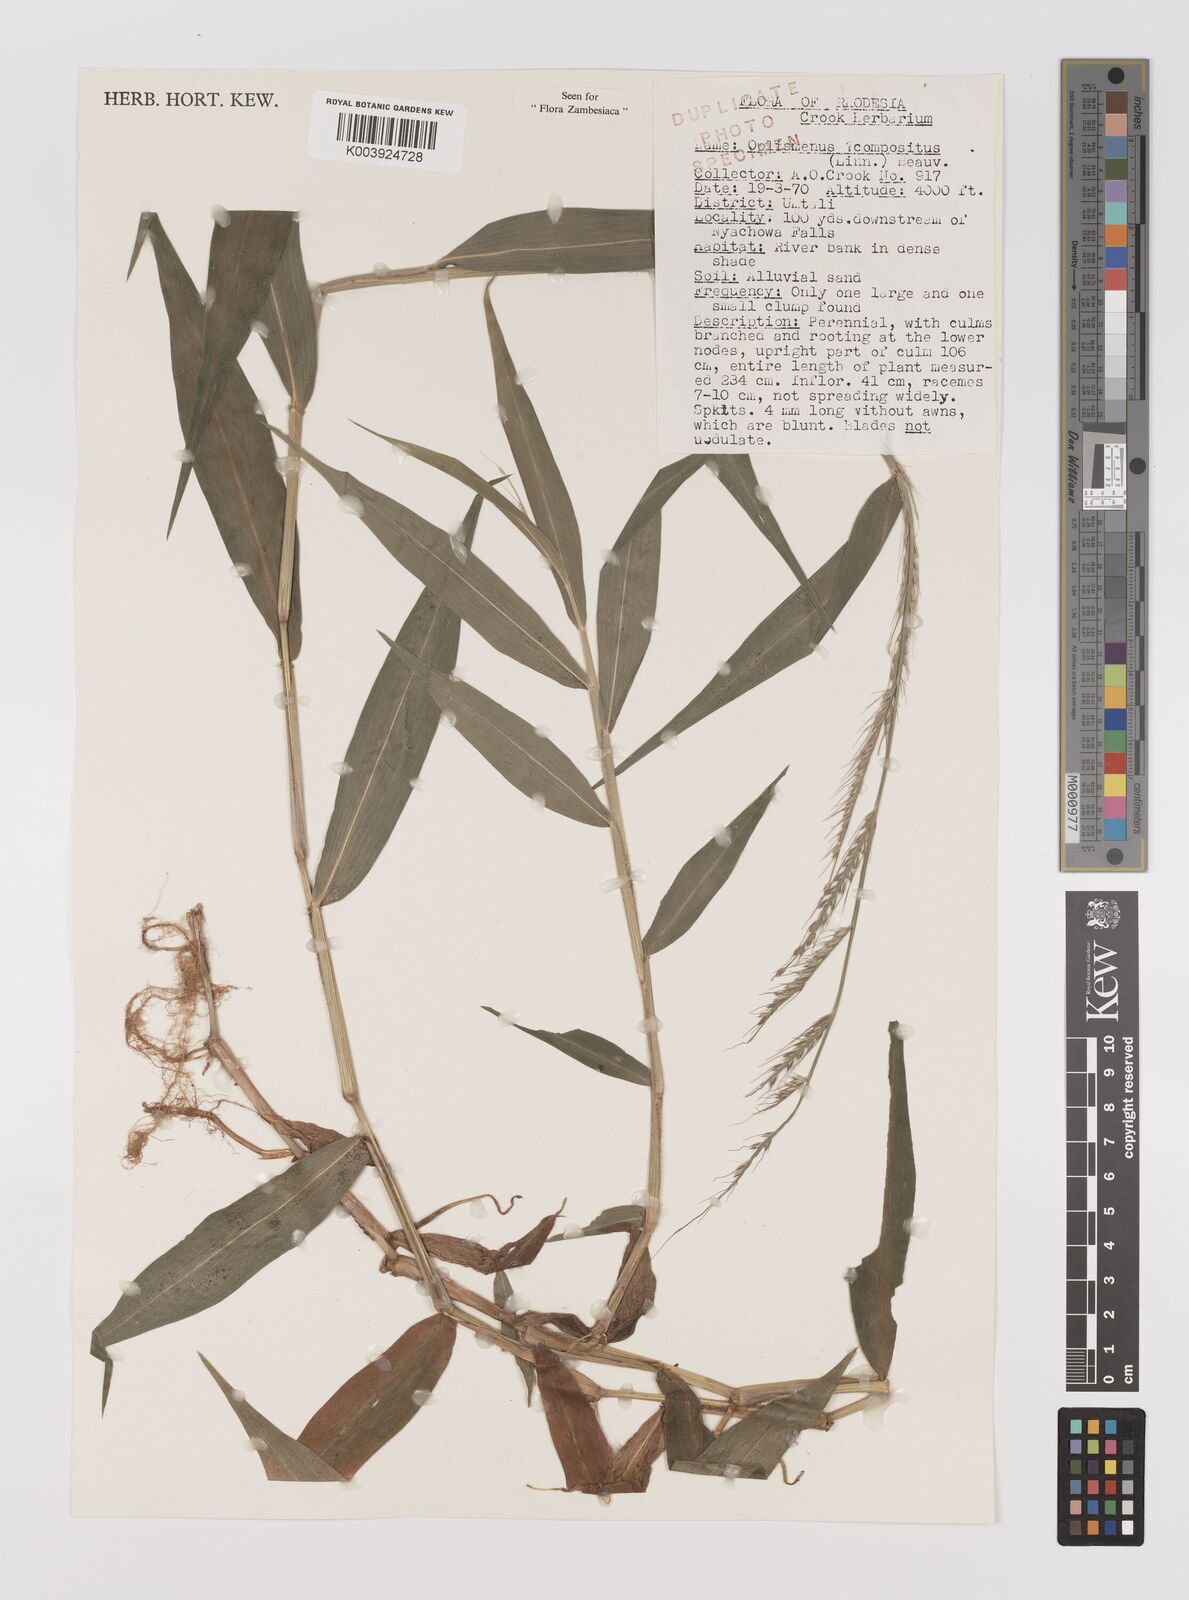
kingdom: Plantae
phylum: Tracheophyta
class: Liliopsida
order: Poales
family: Poaceae
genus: Oplismenus
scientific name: Oplismenus compositus
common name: Running mountain grass
